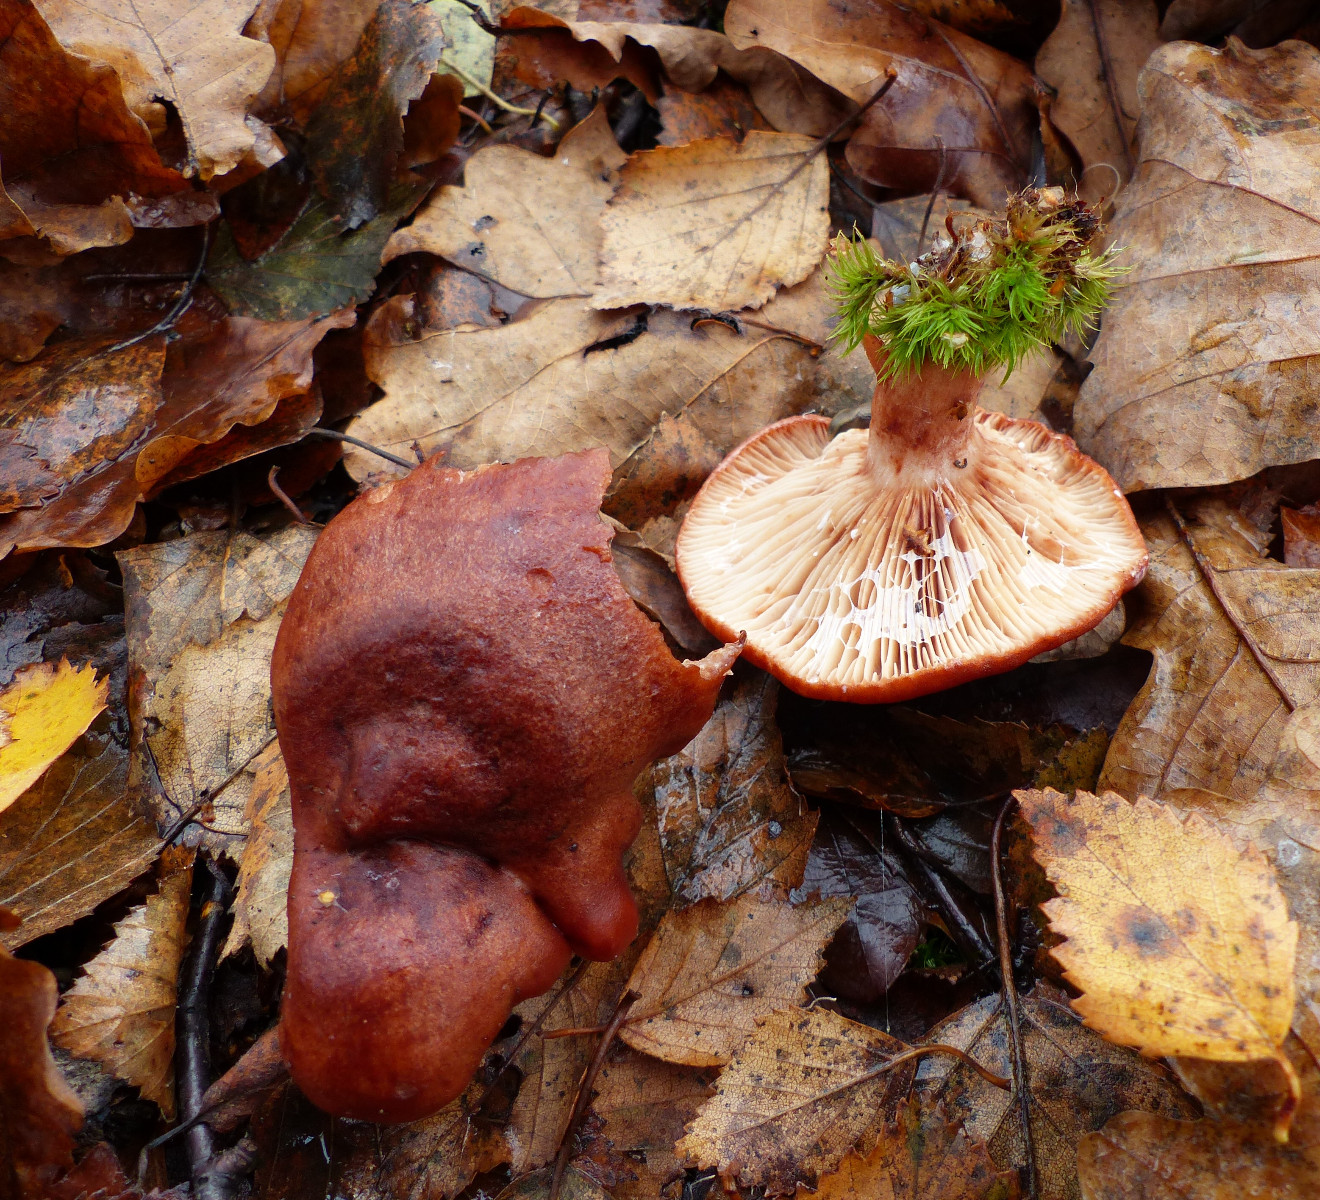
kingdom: Fungi
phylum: Basidiomycota
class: Agaricomycetes
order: Russulales
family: Russulaceae
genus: Lactarius
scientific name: Lactarius rufus
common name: rødbrun mælkehat
